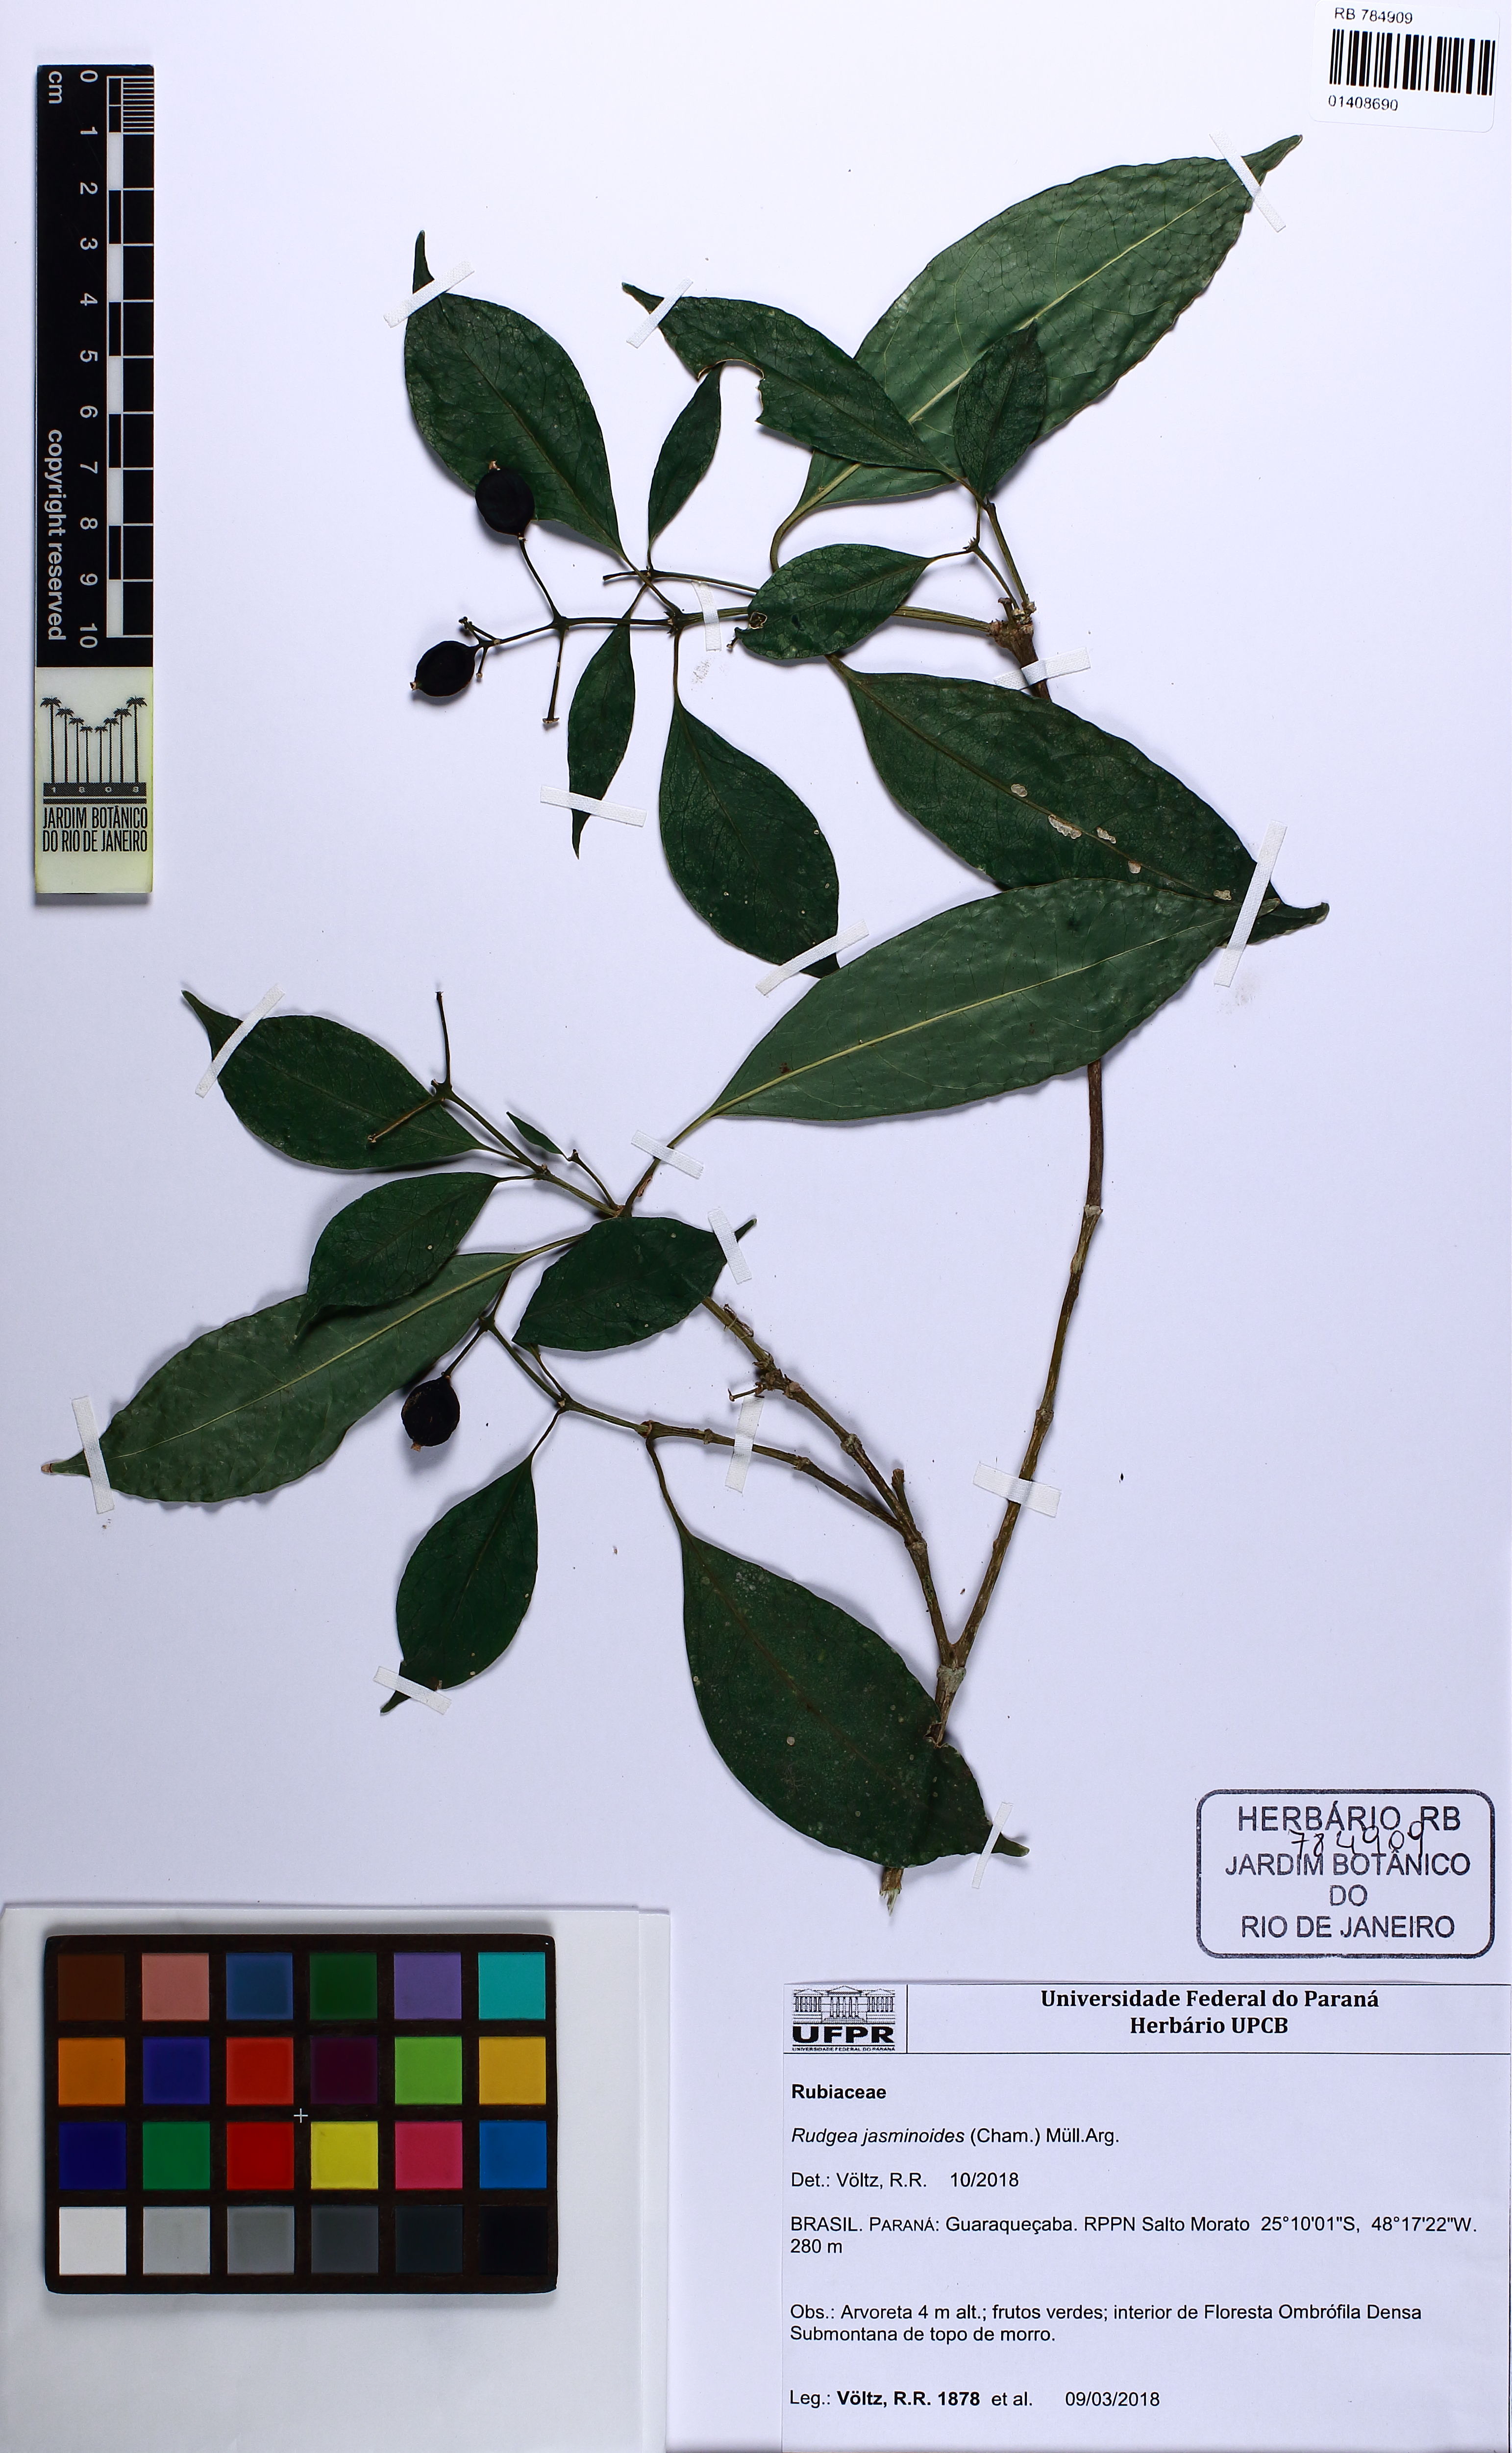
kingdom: Plantae
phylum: Tracheophyta
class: Magnoliopsida
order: Gentianales
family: Rubiaceae
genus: Rudgea
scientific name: Rudgea jasminoides
